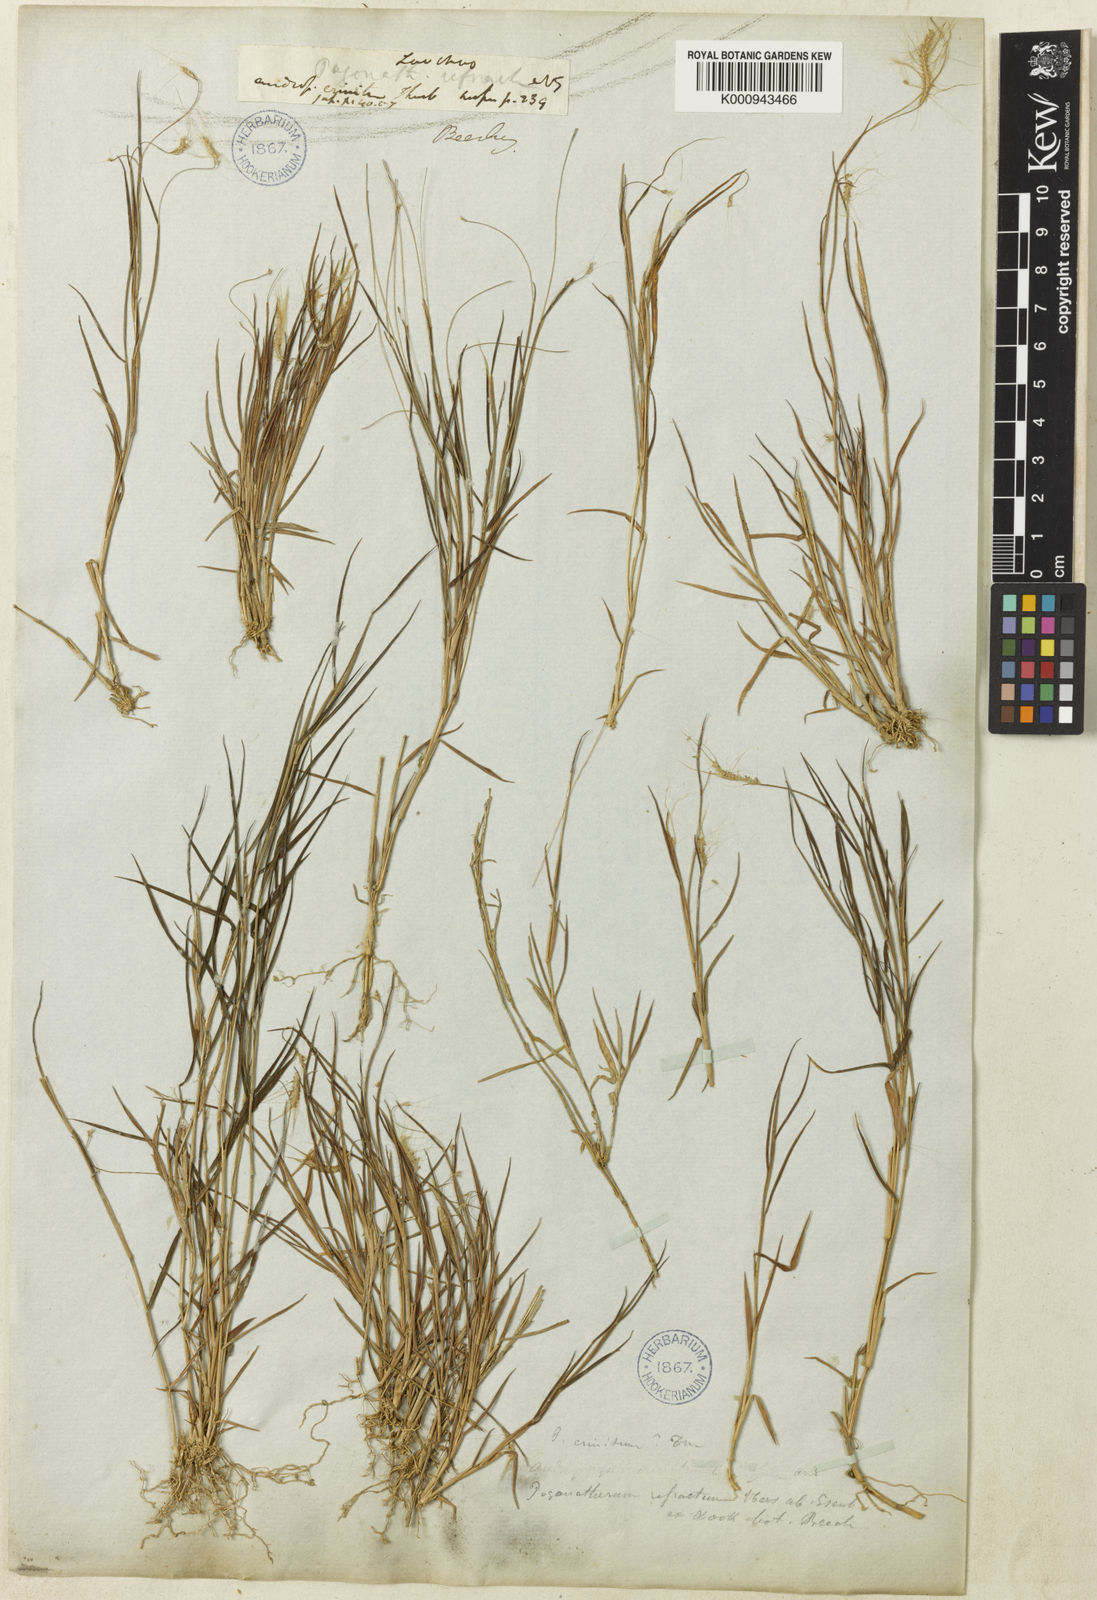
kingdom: Plantae
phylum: Tracheophyta
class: Liliopsida
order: Poales
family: Poaceae
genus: Pogonatherum
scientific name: Pogonatherum crinitum
